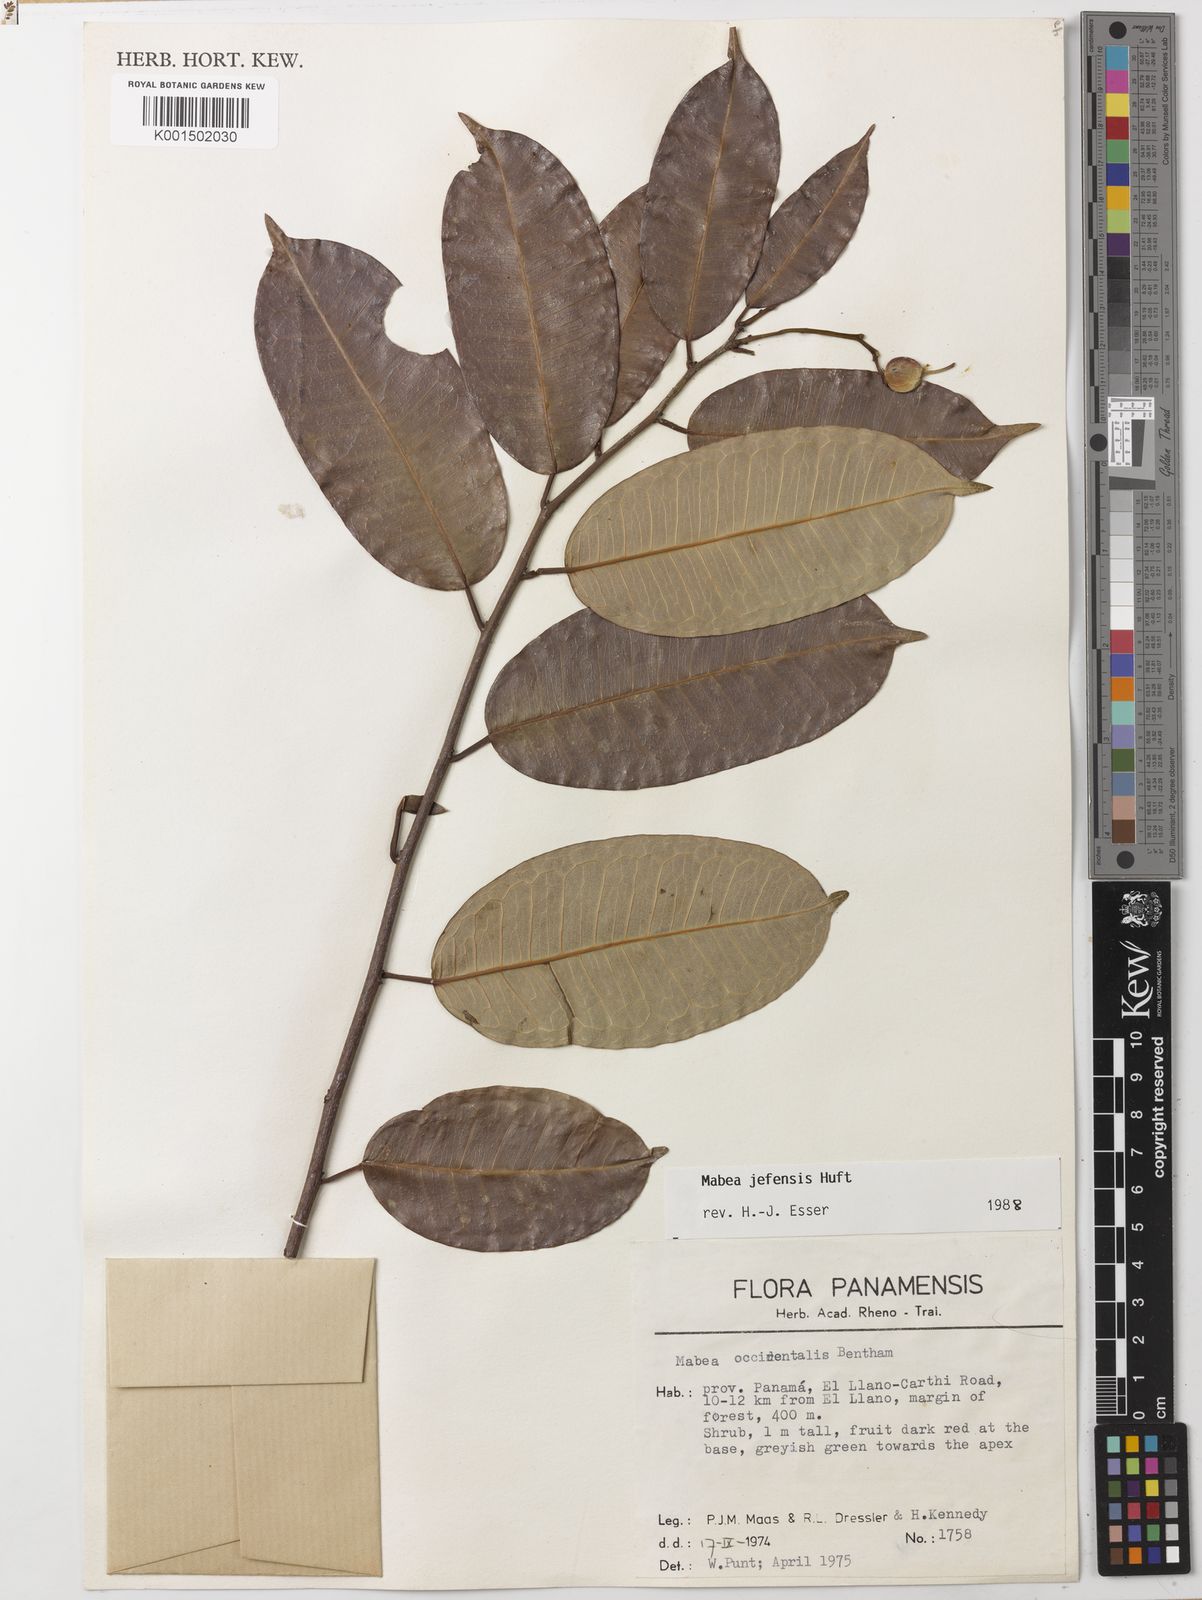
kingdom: Plantae
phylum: Tracheophyta
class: Magnoliopsida
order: Malpighiales
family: Euphorbiaceae
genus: Mabea
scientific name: Mabea jefensis
